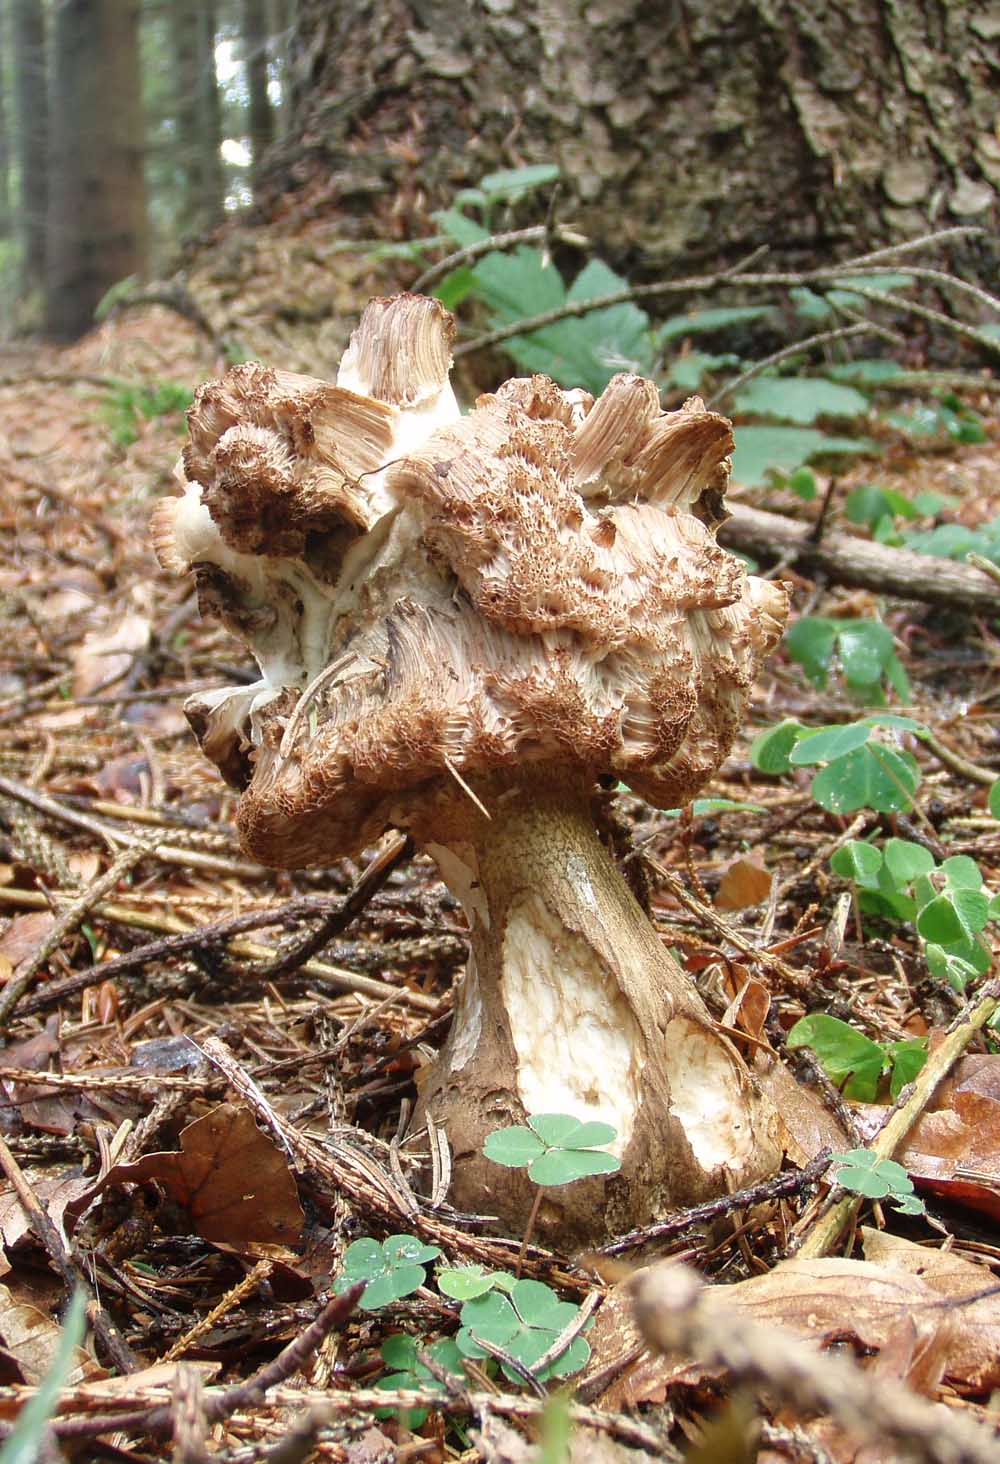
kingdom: Fungi
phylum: Basidiomycota
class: Agaricomycetes
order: Boletales
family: Boletaceae
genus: Tylopilus
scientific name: Tylopilus felleus
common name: galderørhat
